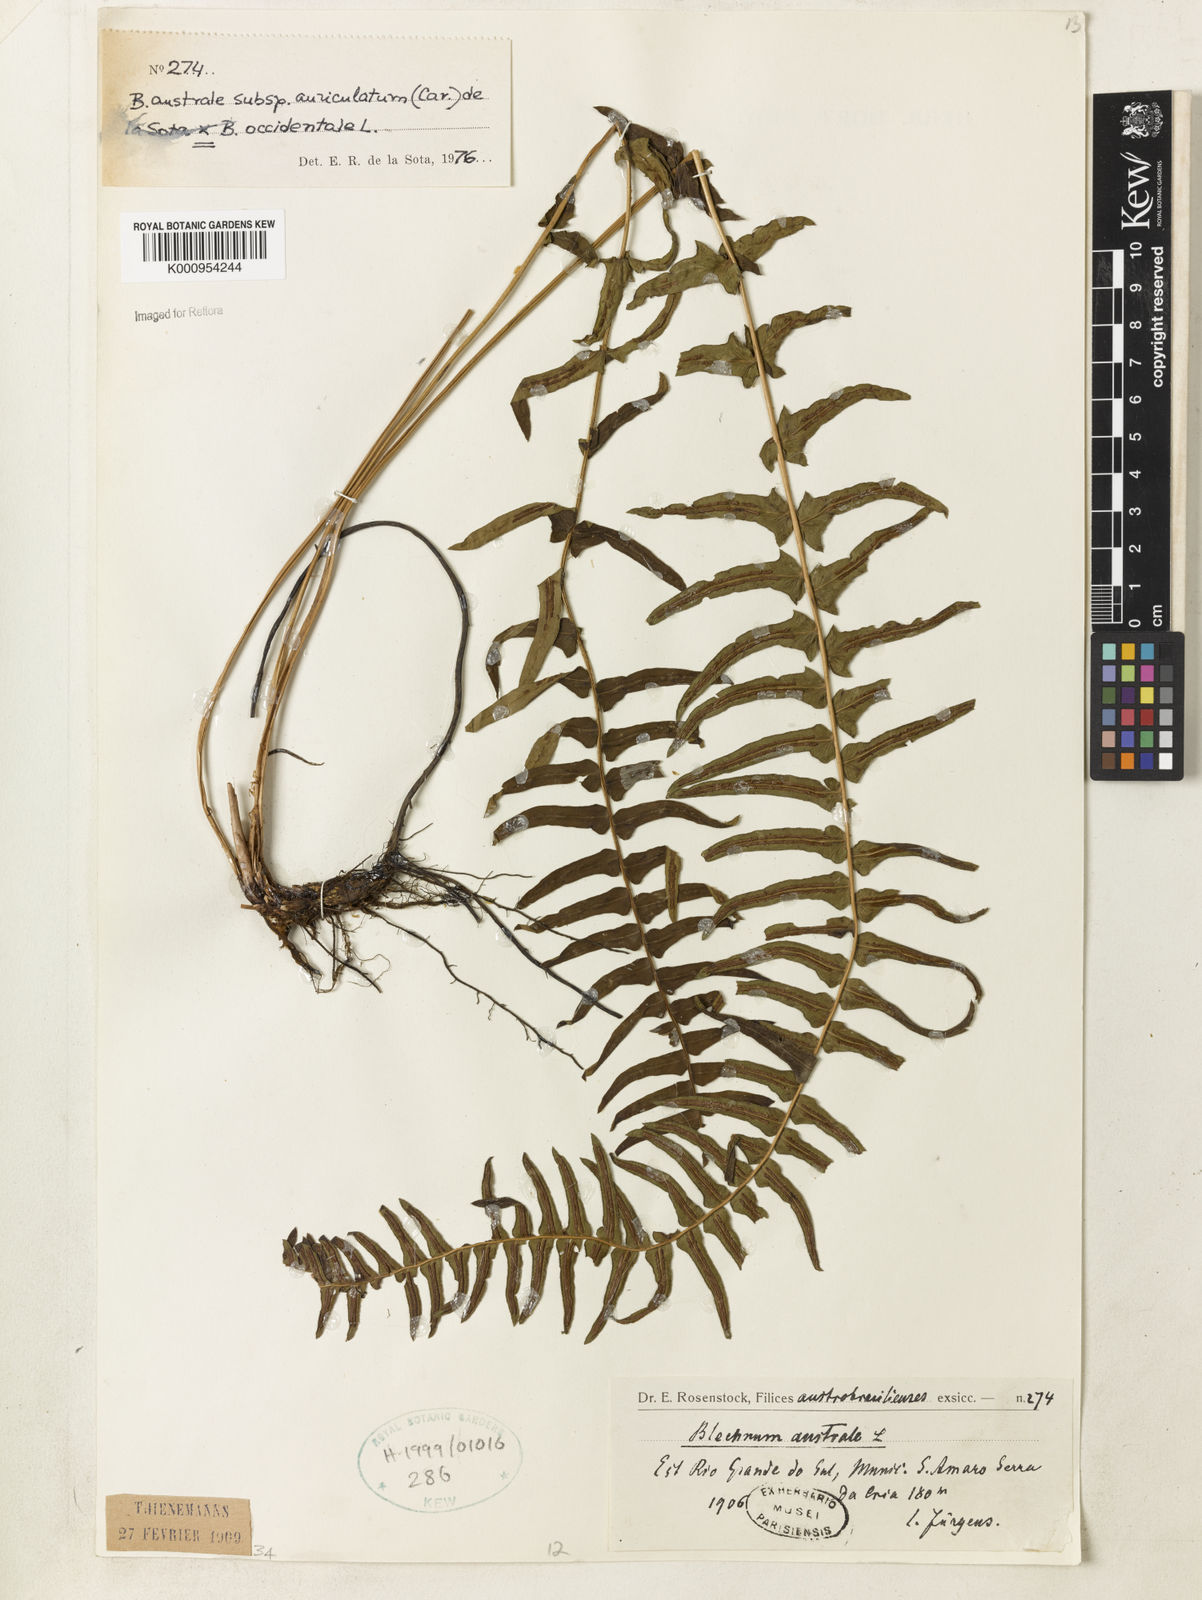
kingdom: Plantae
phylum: Tracheophyta
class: Polypodiopsida
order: Polypodiales
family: Blechnaceae
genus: Blechnum
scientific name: Blechnum australe
